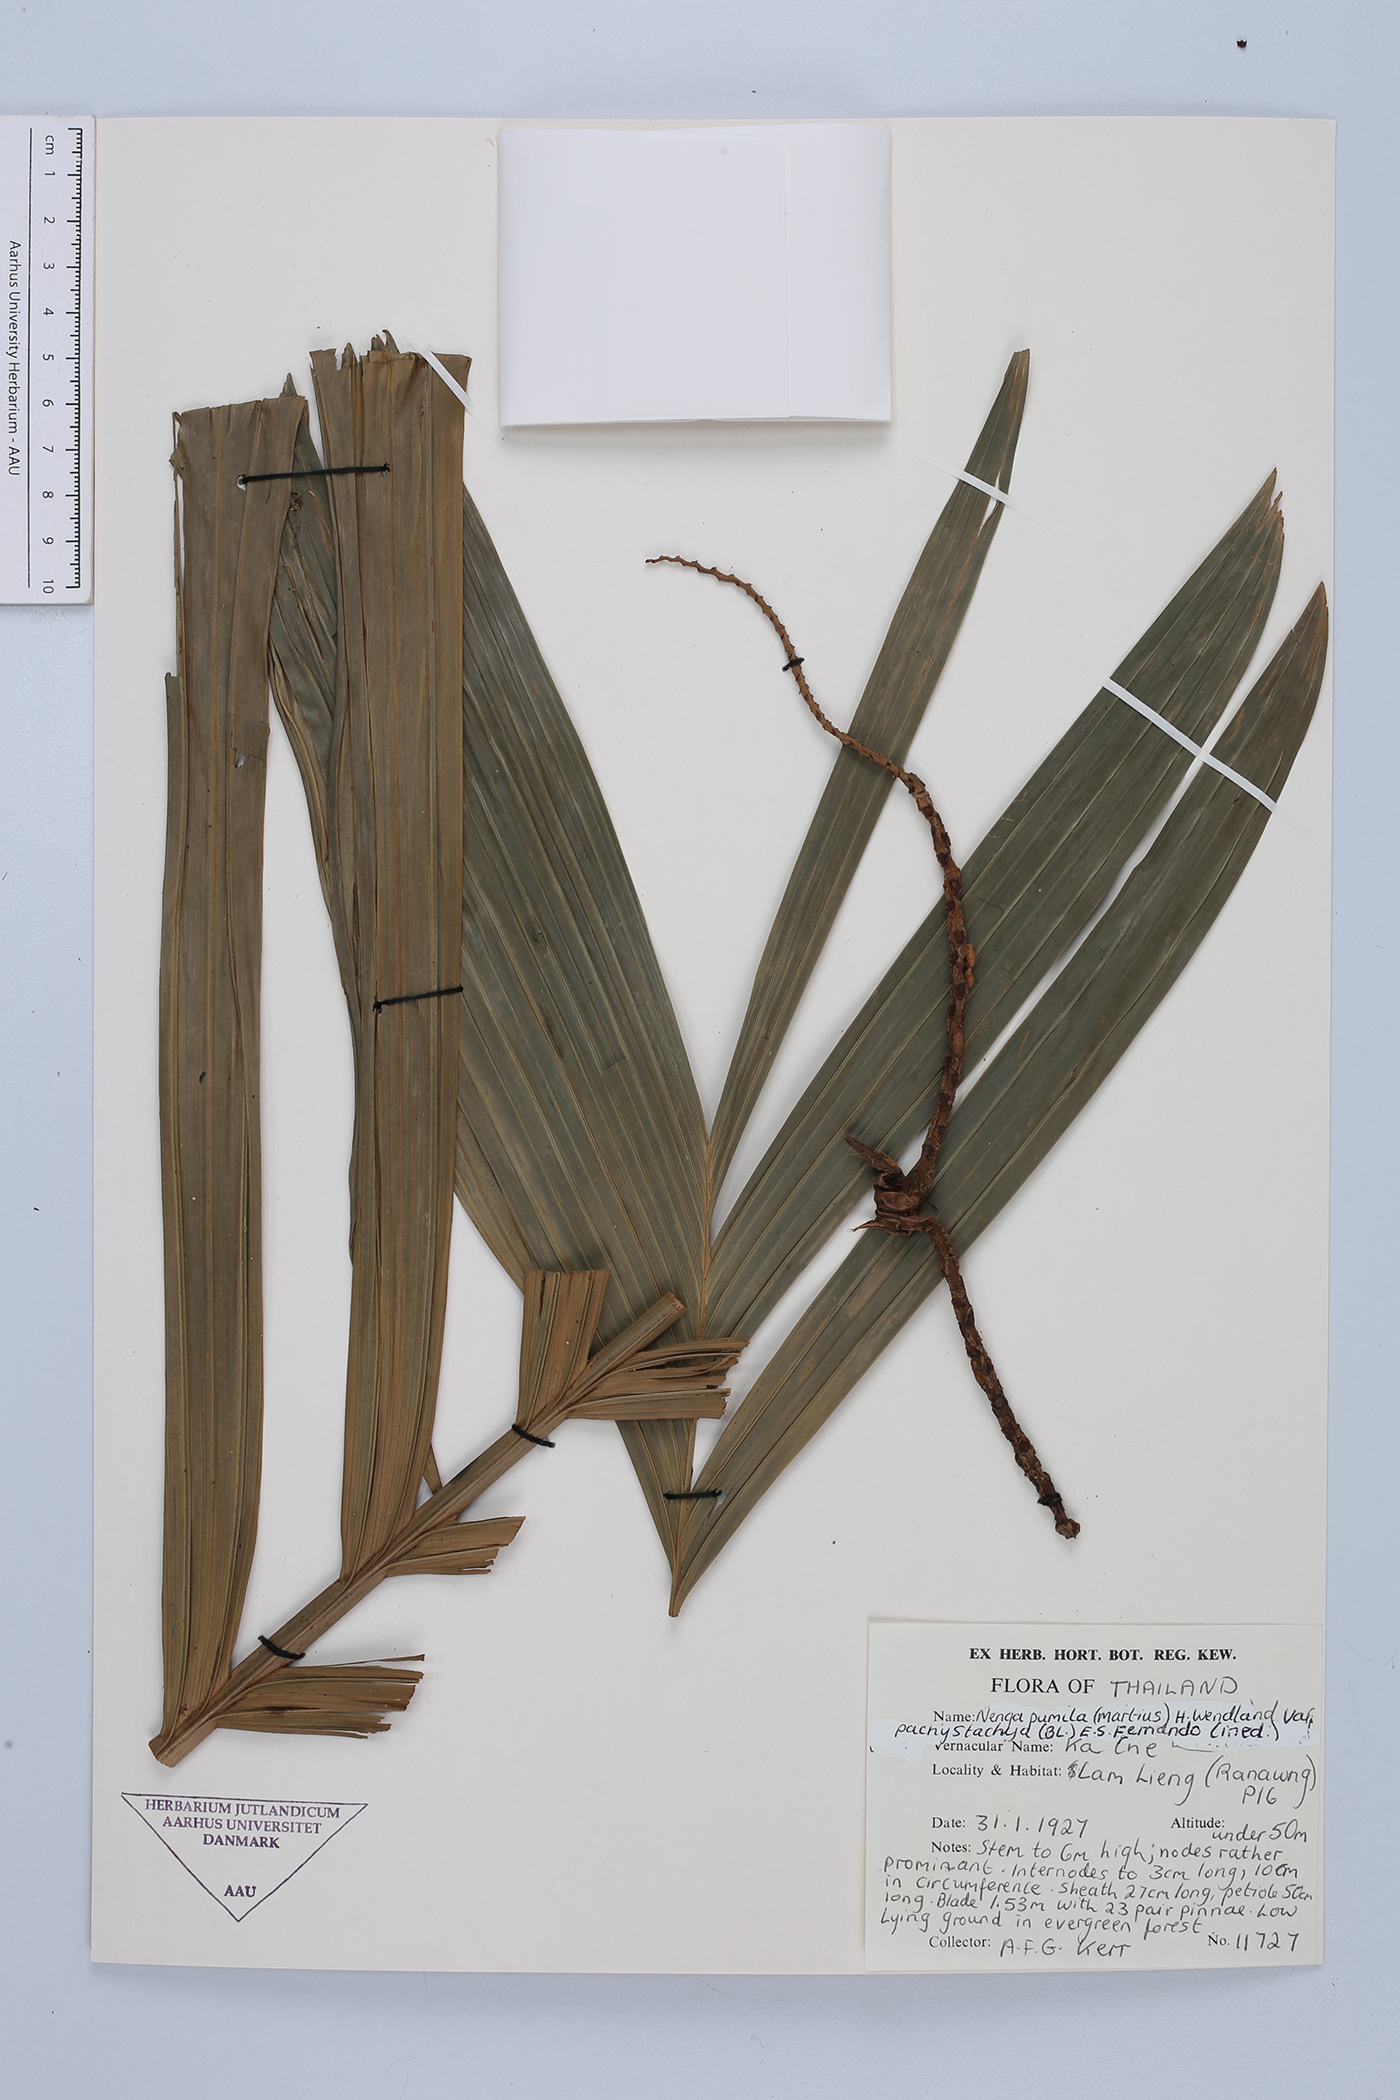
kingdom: Plantae
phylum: Tracheophyta
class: Liliopsida
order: Arecales
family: Arecaceae
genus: Nenga
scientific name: Nenga pumila
